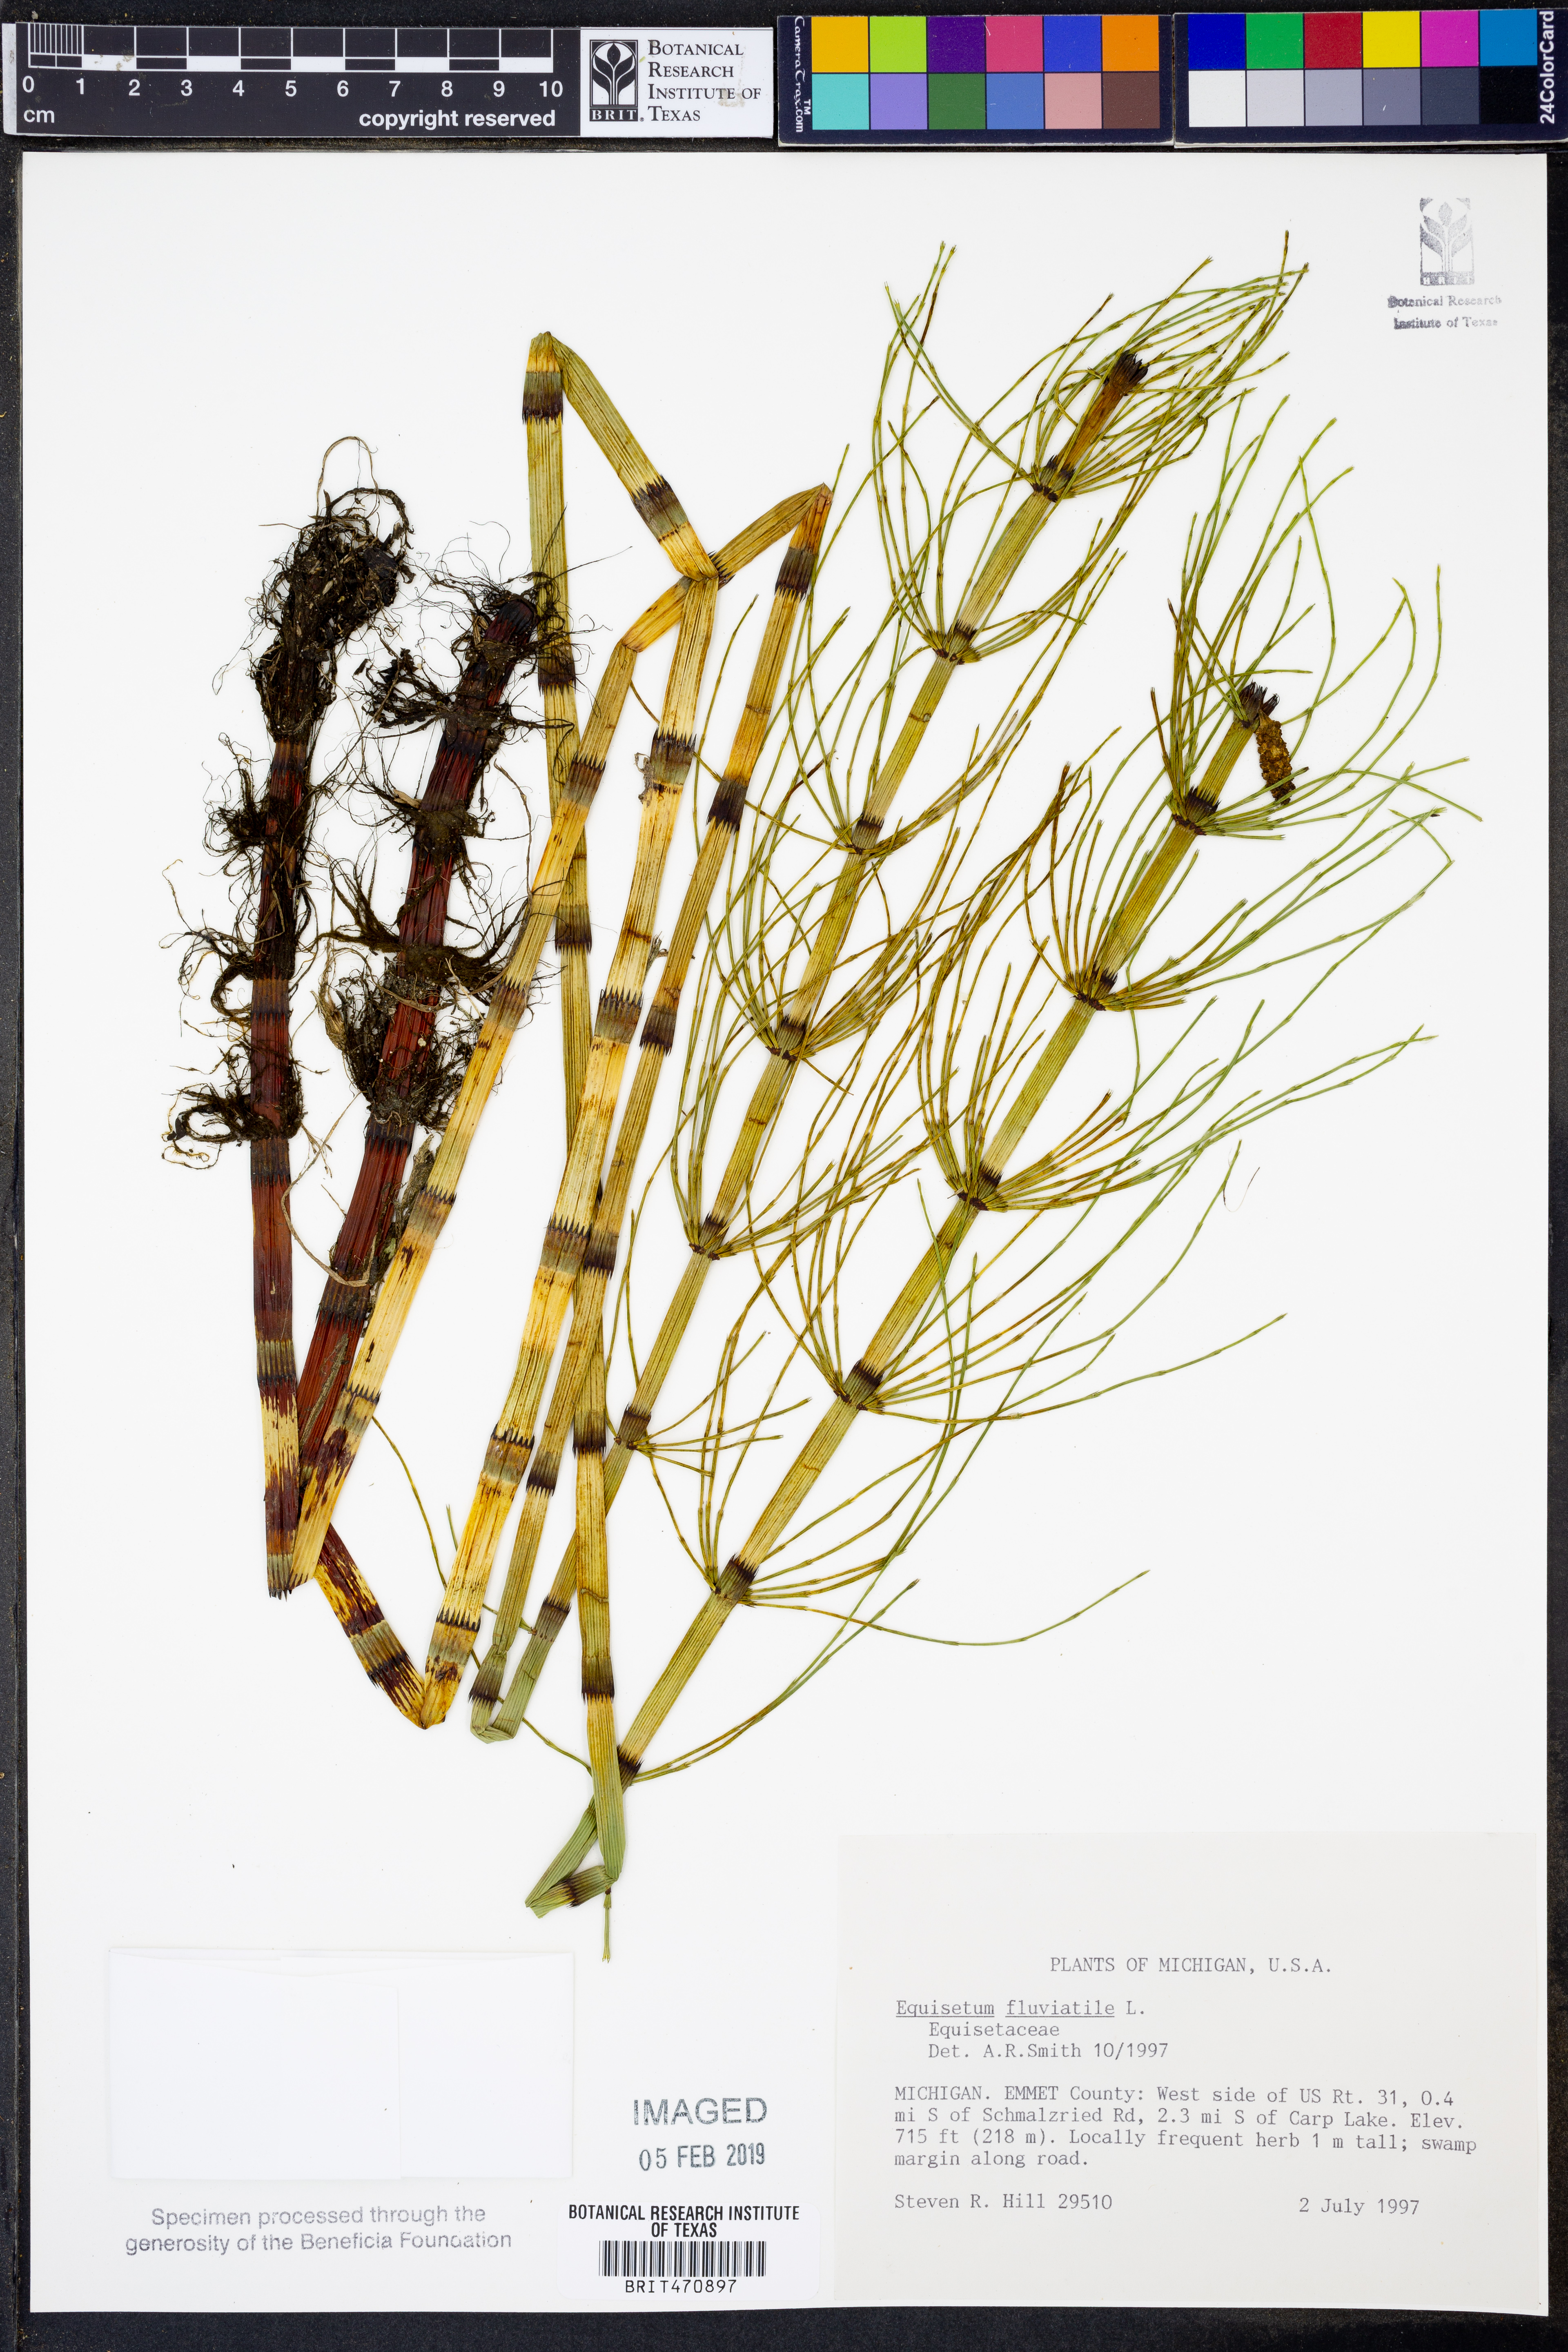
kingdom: Plantae
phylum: Tracheophyta
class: Polypodiopsida
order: Equisetales
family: Equisetaceae
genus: Equisetum
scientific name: Equisetum fluviatile
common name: Water horsetail
